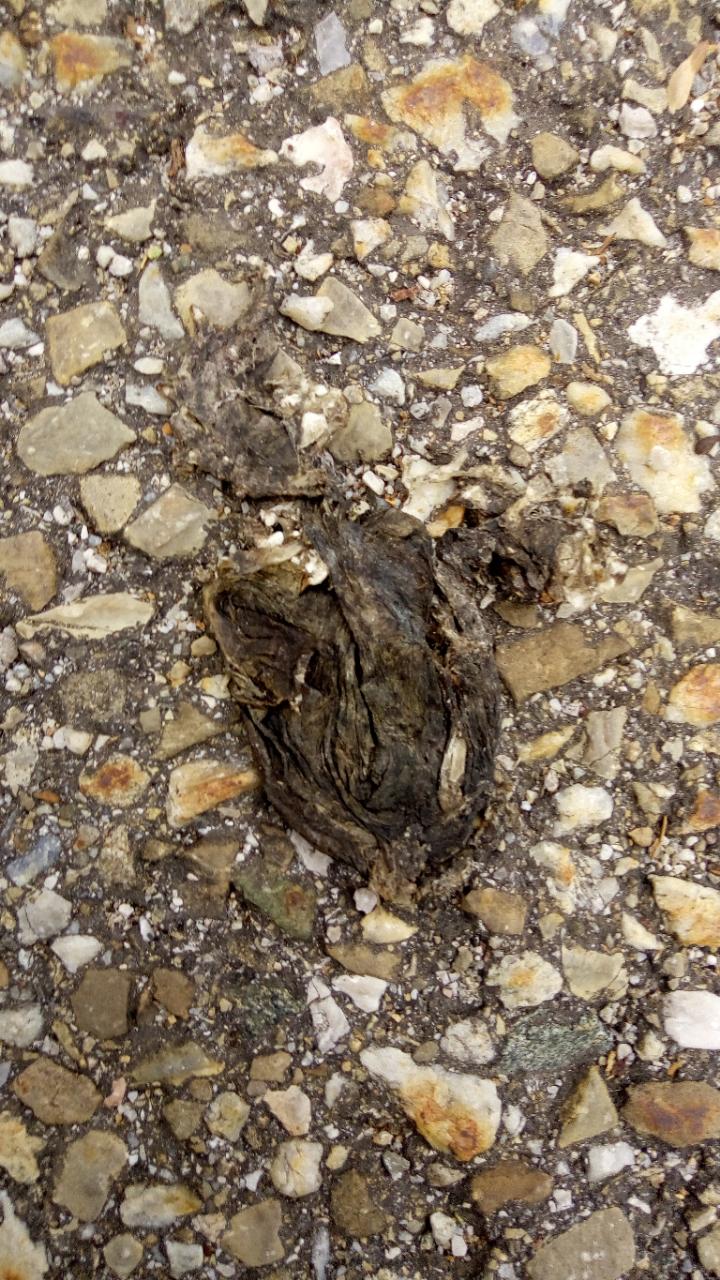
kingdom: Animalia
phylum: Chordata
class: Amphibia
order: Anura
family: Bufonidae
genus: Bufo
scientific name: Bufo bufo
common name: Common toad
